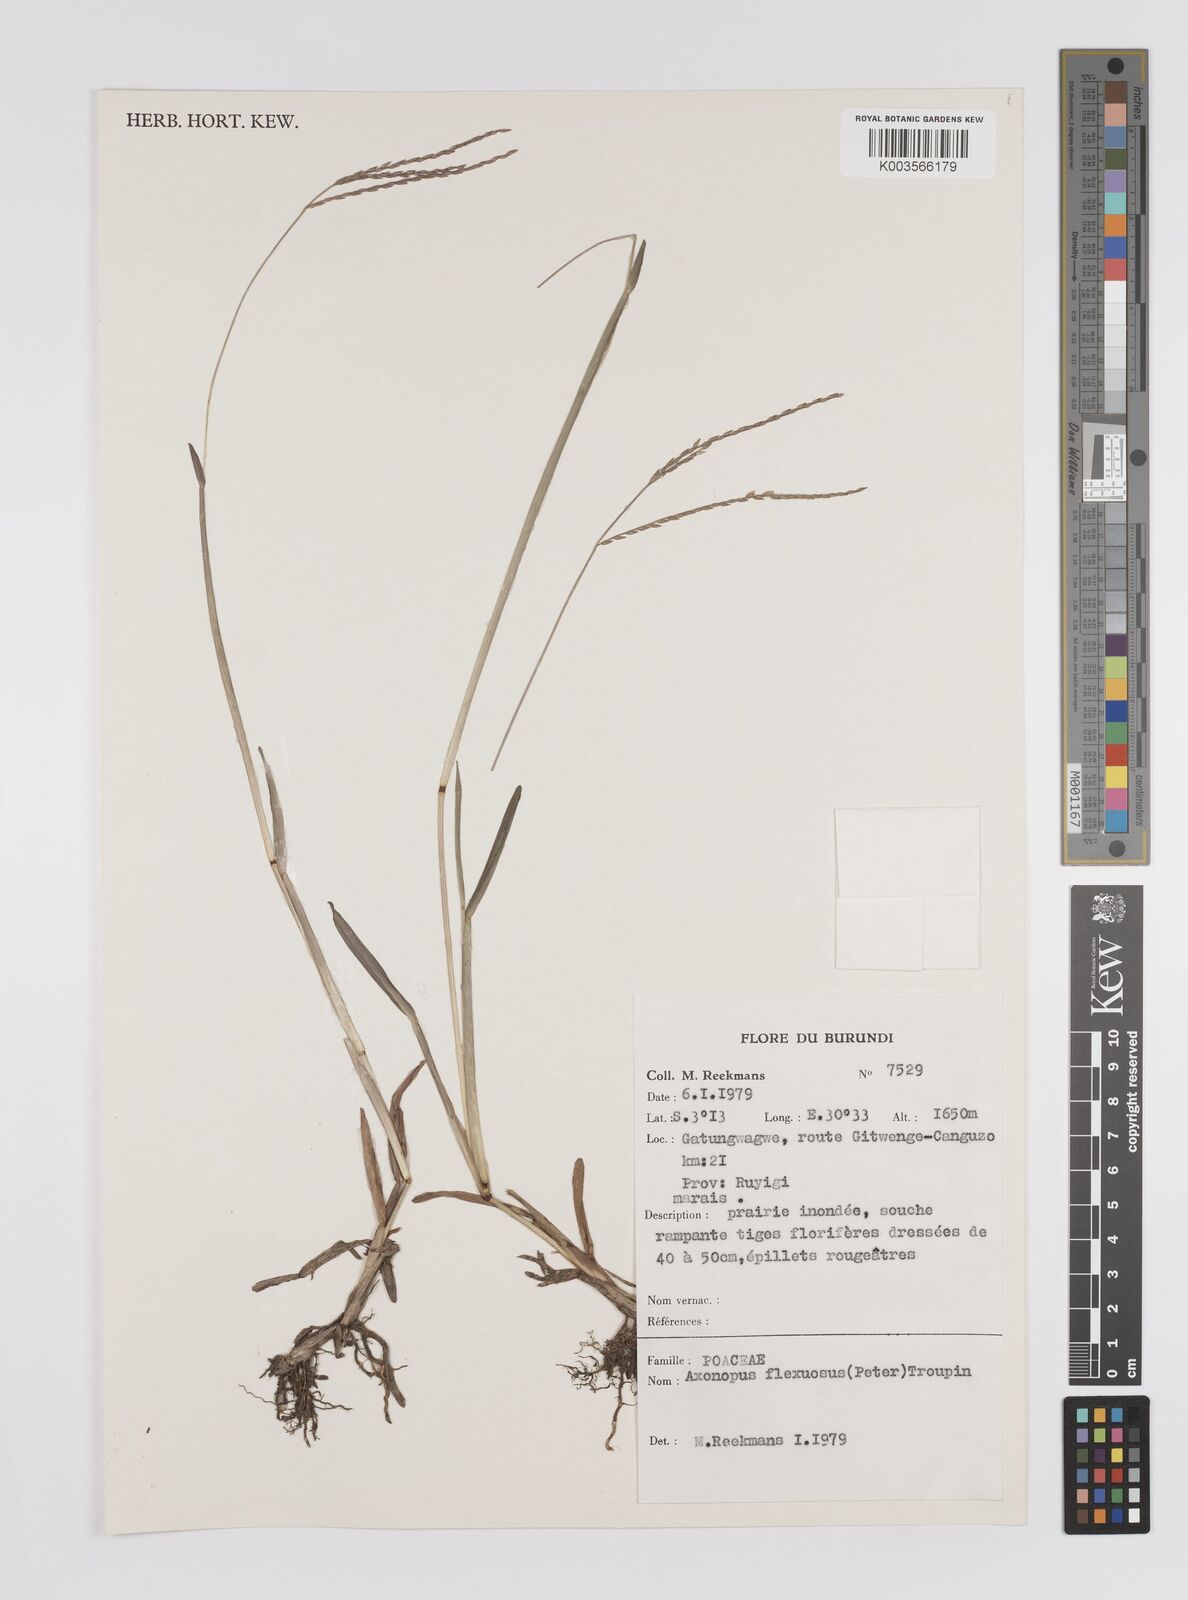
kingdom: Plantae
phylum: Tracheophyta
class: Liliopsida
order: Poales
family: Poaceae
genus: Axonopus
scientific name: Axonopus flexuosus
